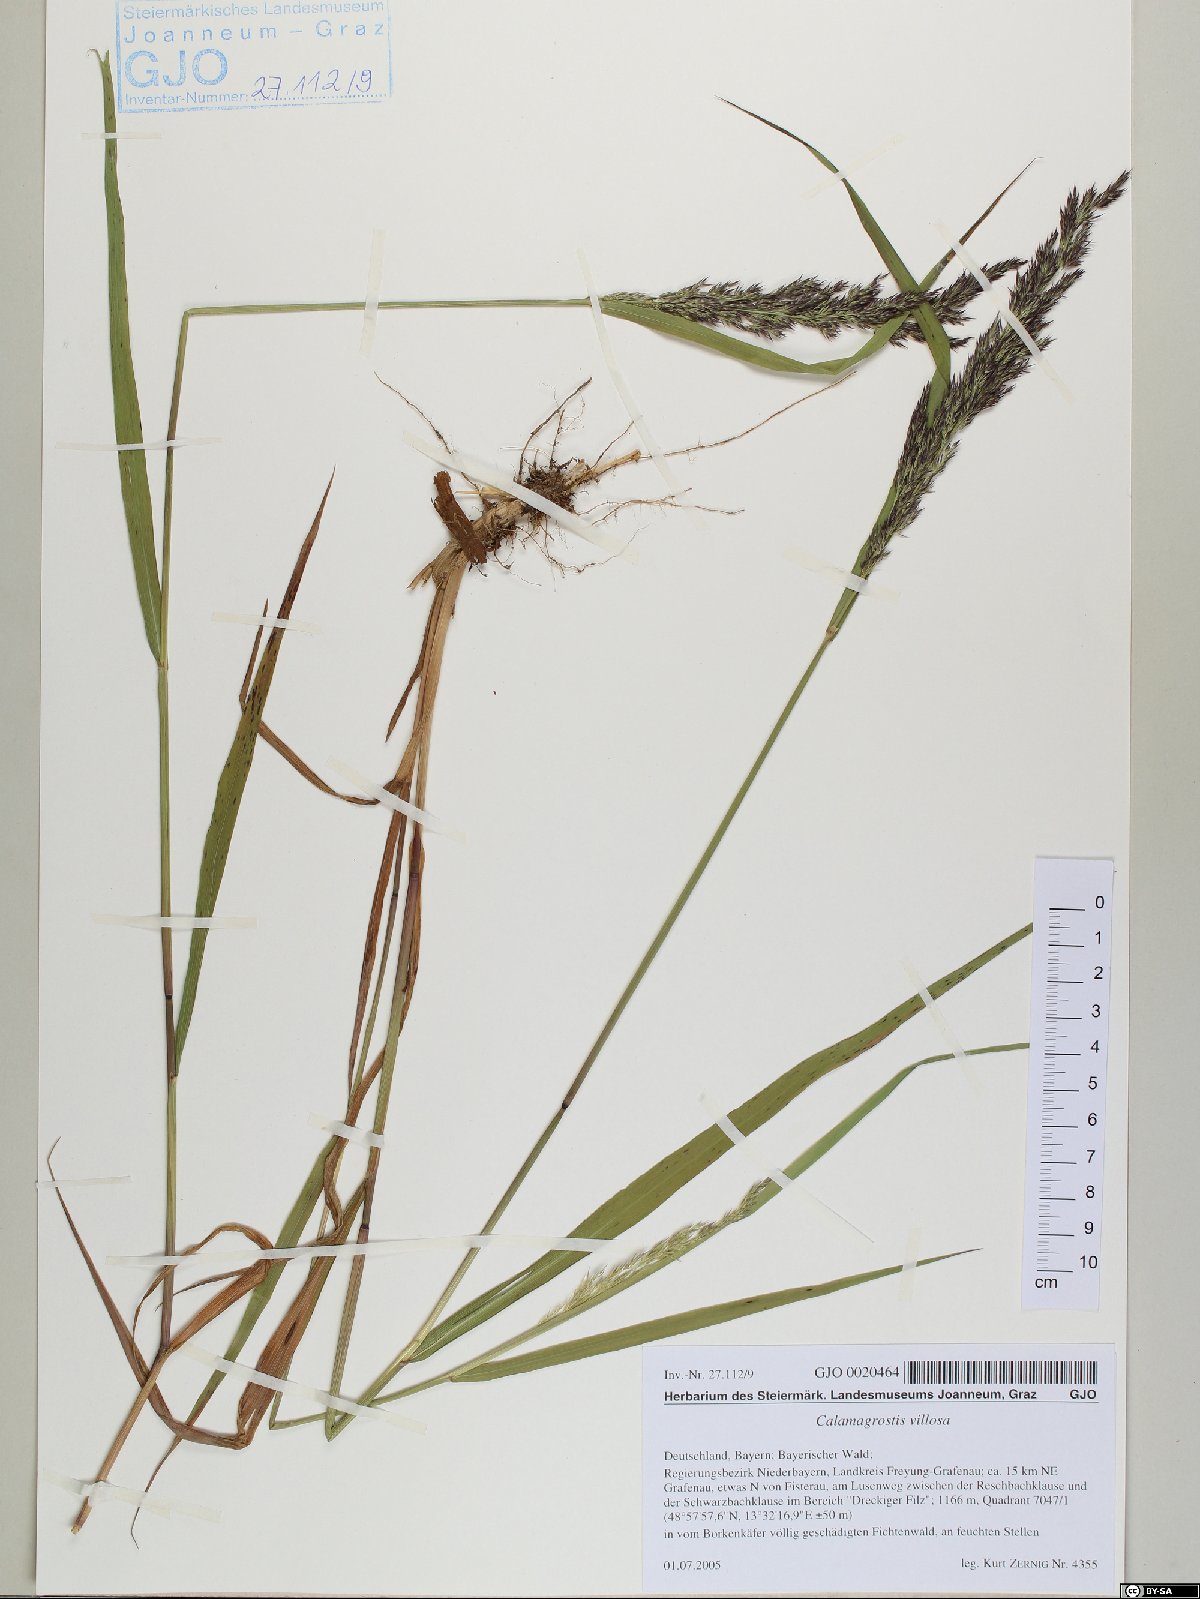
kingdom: Plantae
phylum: Tracheophyta
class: Liliopsida
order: Poales
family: Poaceae
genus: Calamagrostis
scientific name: Calamagrostis villosa
